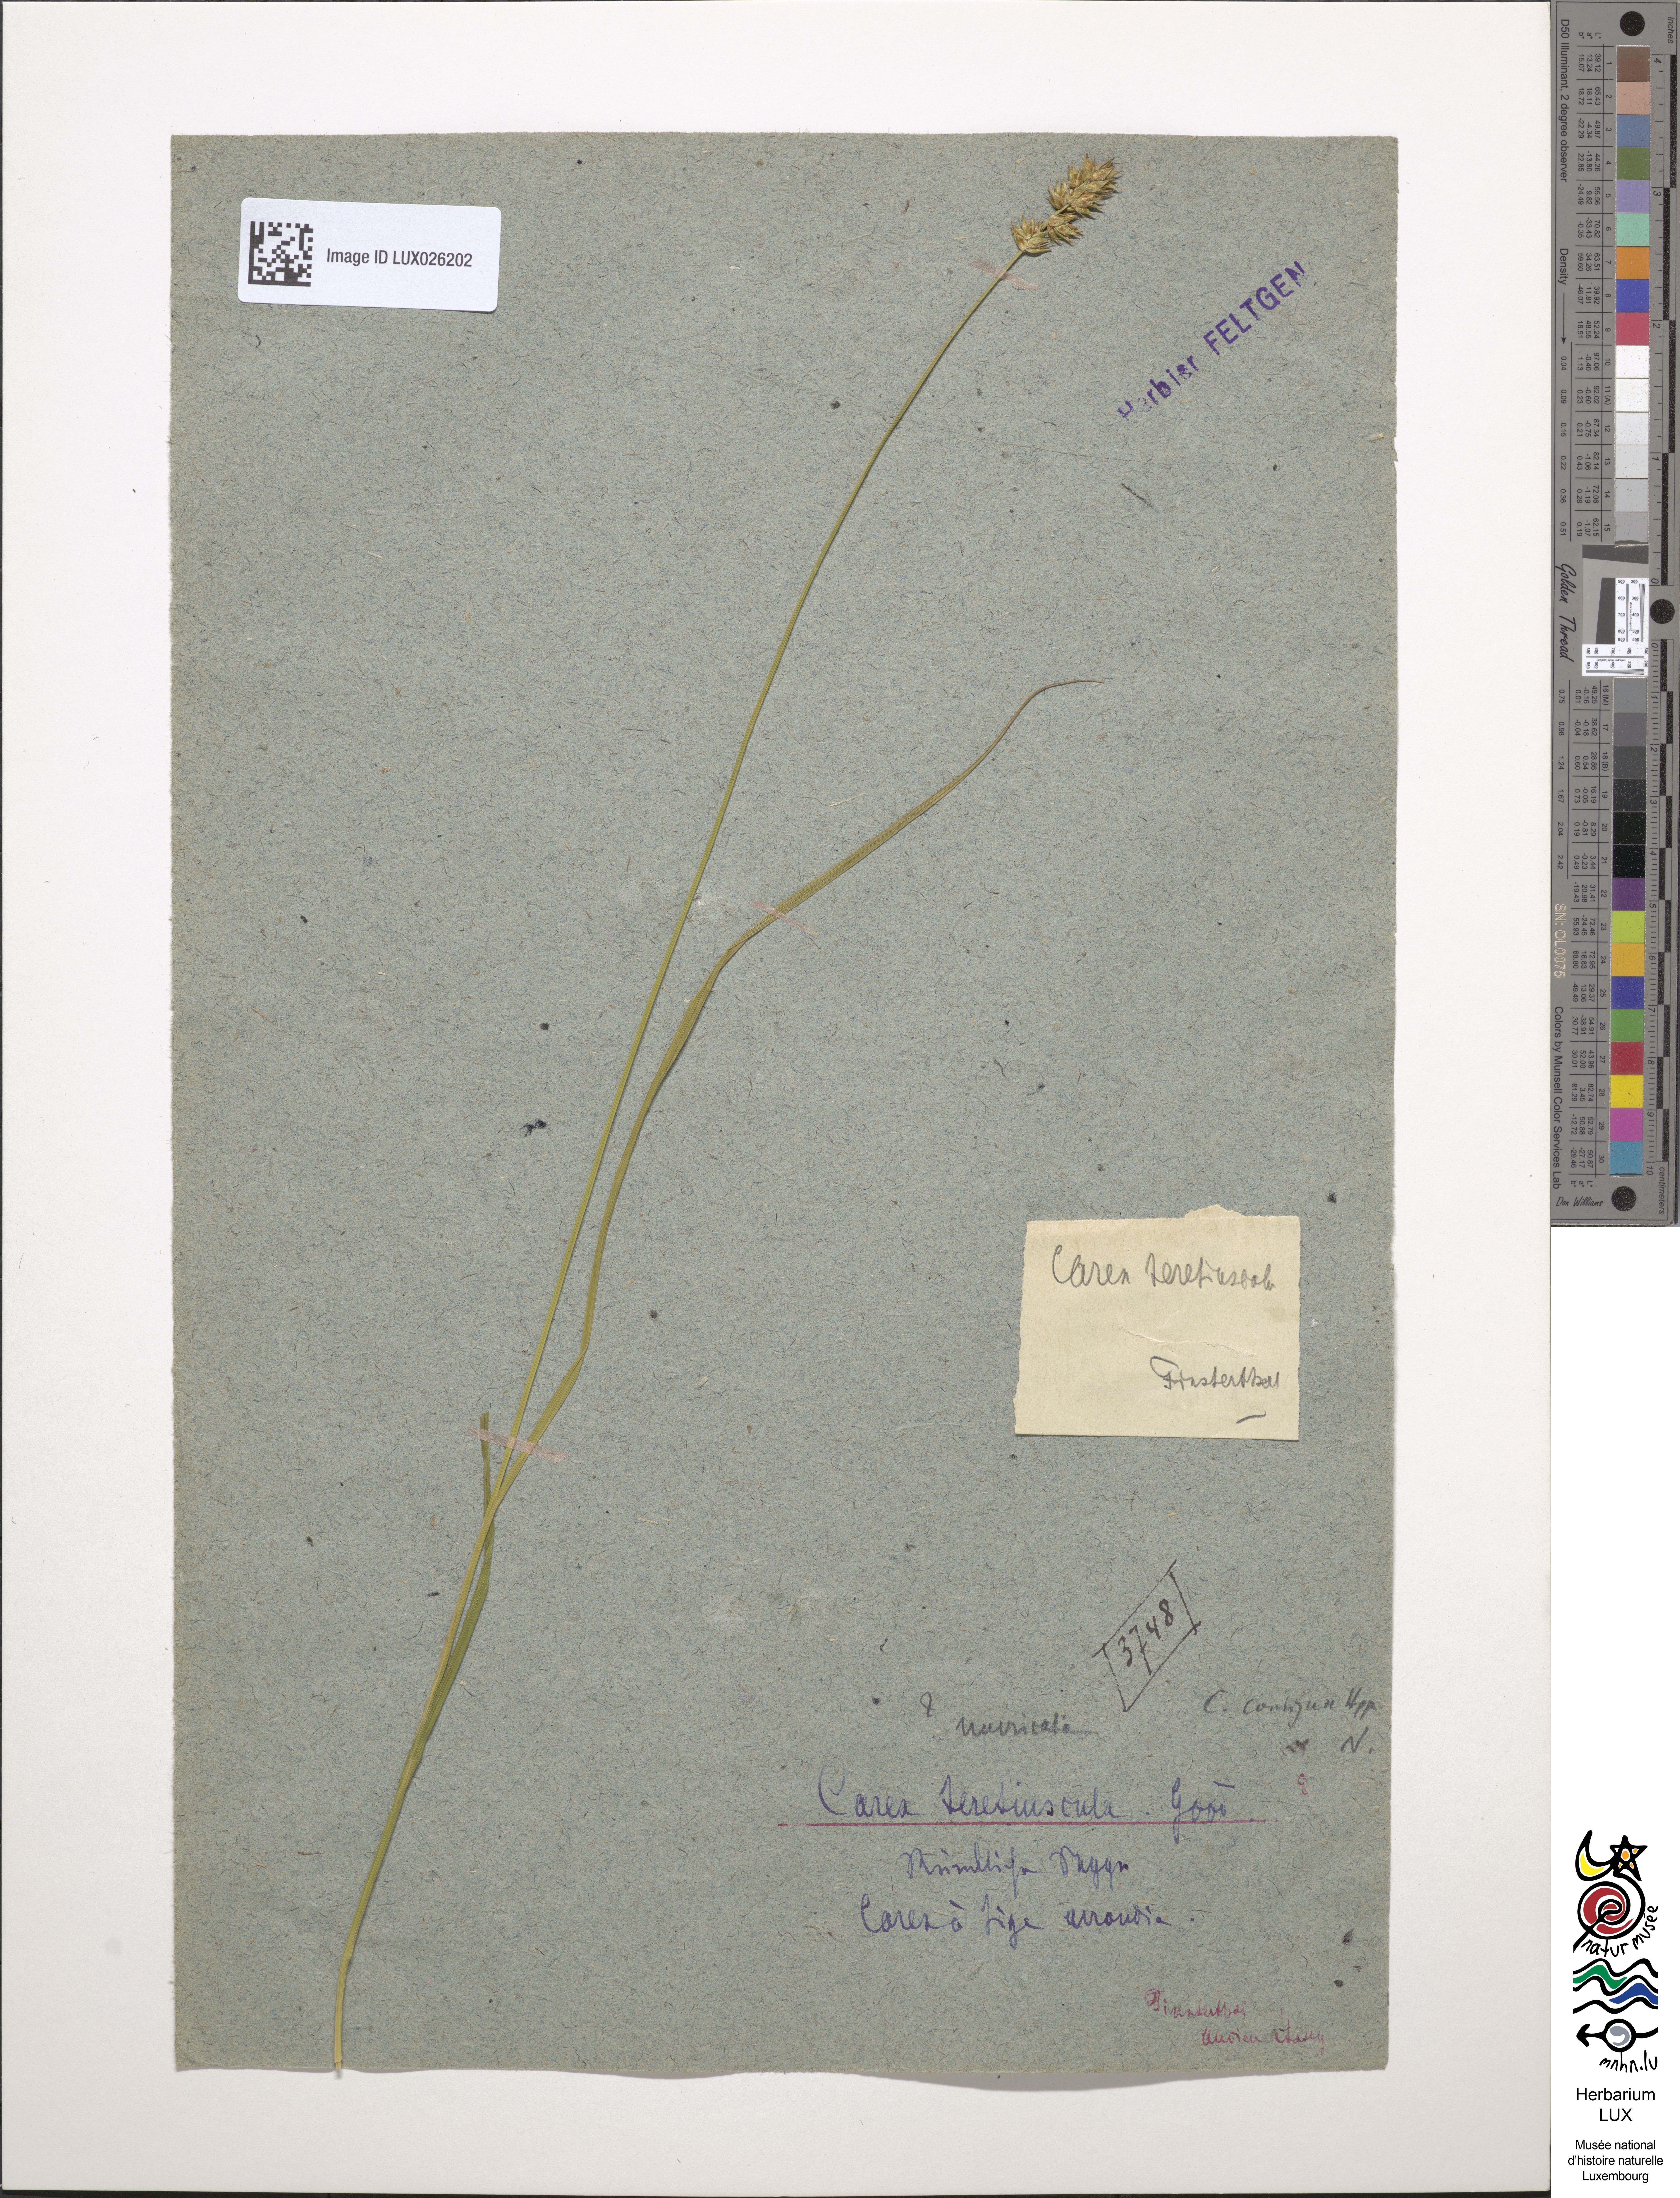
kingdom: Plantae
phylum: Tracheophyta
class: Liliopsida
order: Poales
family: Cyperaceae
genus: Carex
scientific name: Carex diandra
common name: Lesser tussock-sedge
